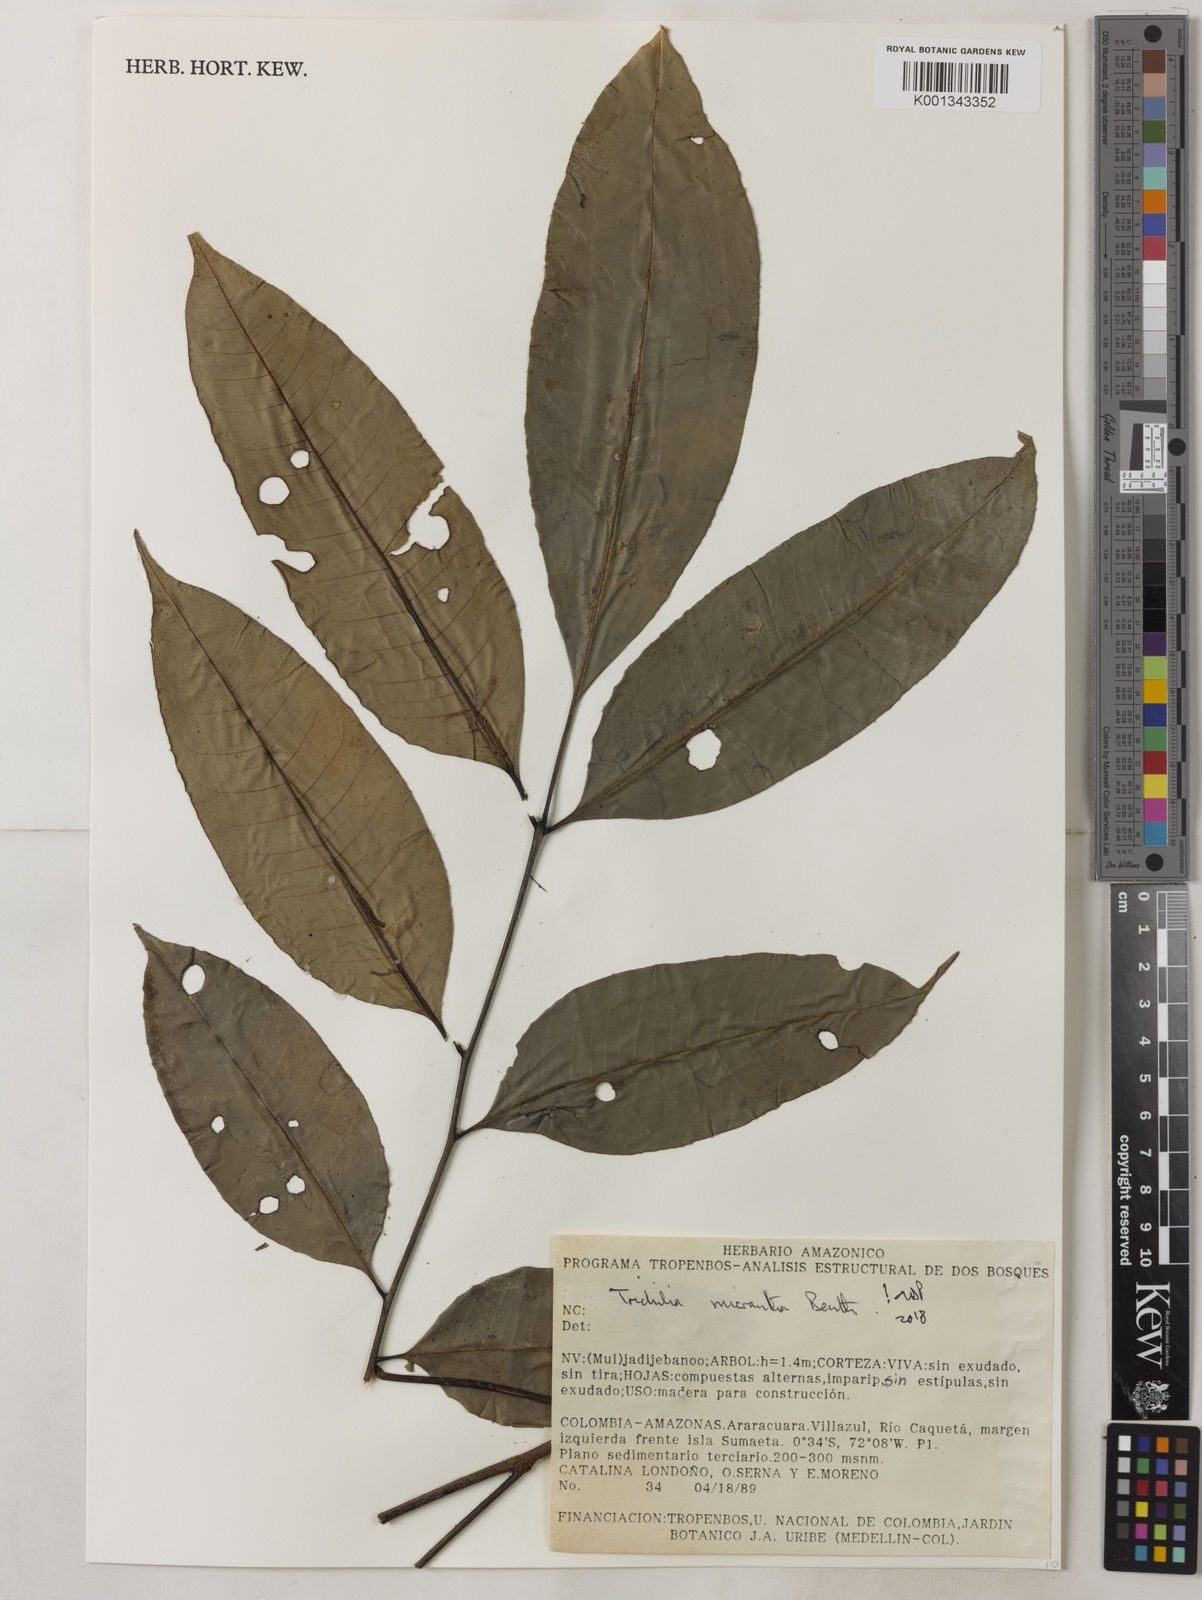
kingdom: Plantae
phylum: Tracheophyta
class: Magnoliopsida
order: Sapindales
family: Meliaceae
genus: Trichilia
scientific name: Trichilia micrantha
